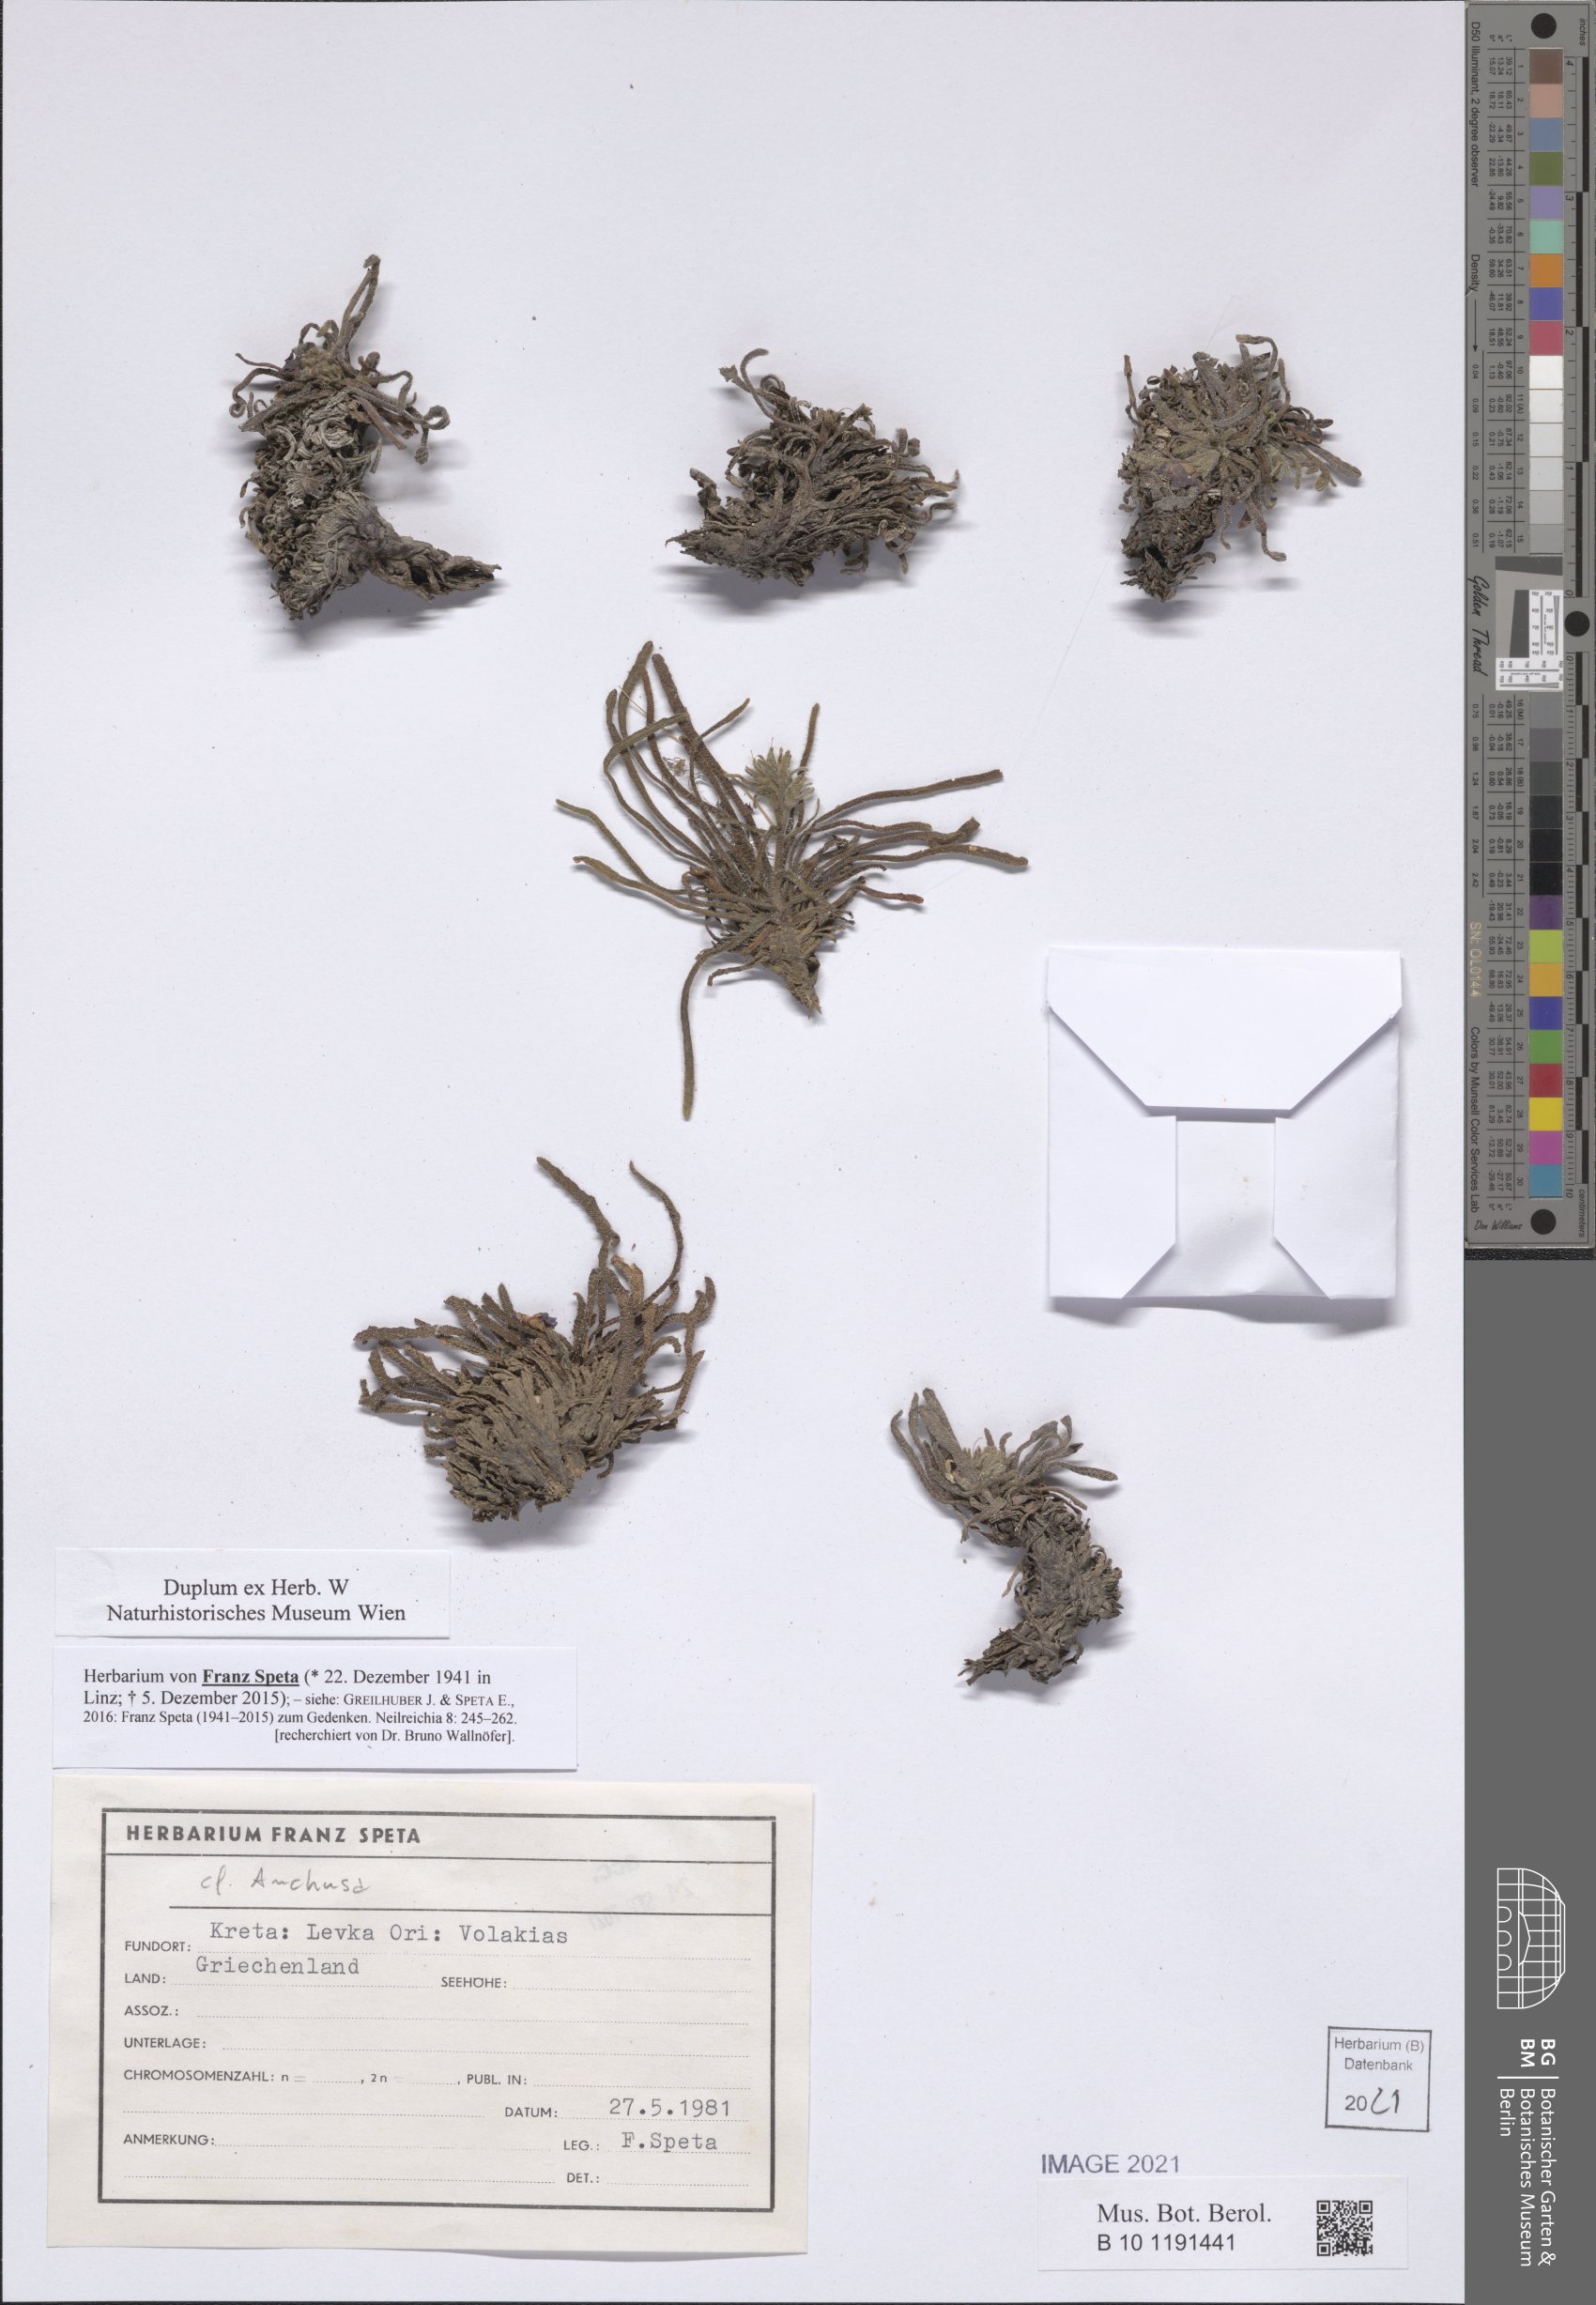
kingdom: Plantae
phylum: Tracheophyta
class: Magnoliopsida
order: Boraginales
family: Boraginaceae
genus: Anchusa
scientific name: Anchusa
